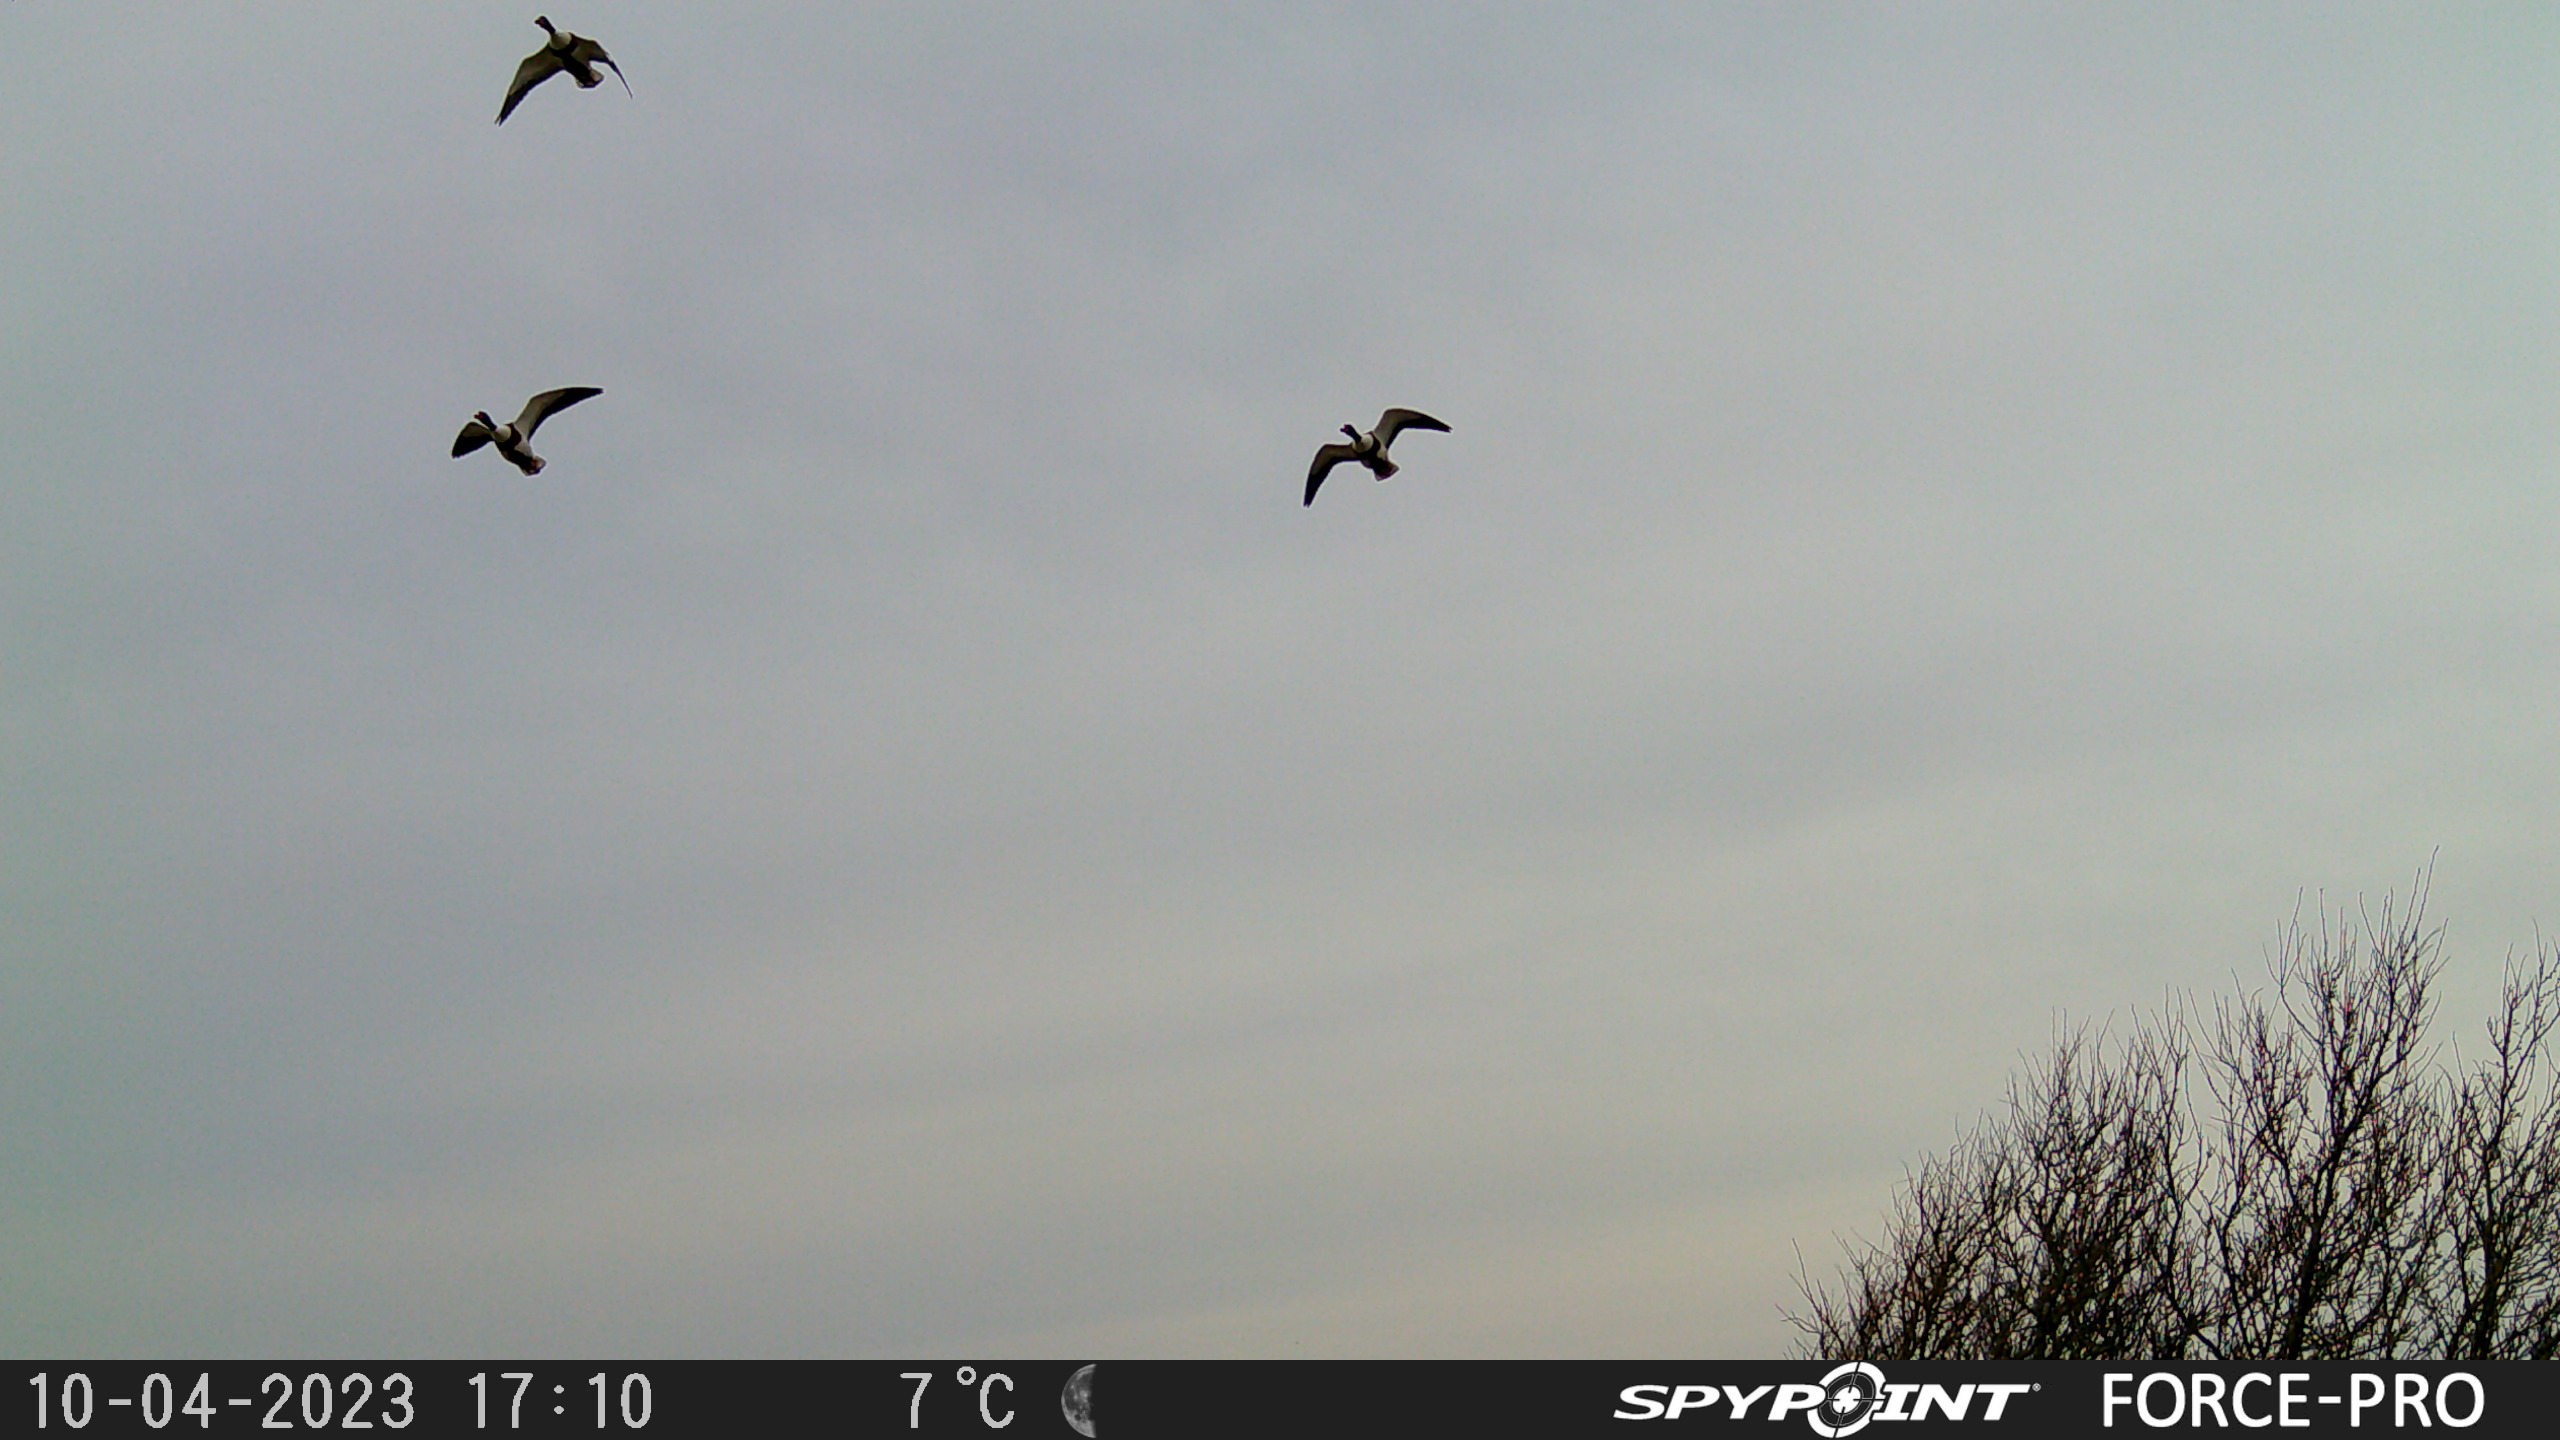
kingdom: Animalia
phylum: Chordata
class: Aves
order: Anseriformes
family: Anatidae
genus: Tadorna
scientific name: Tadorna tadorna
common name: Gravand
